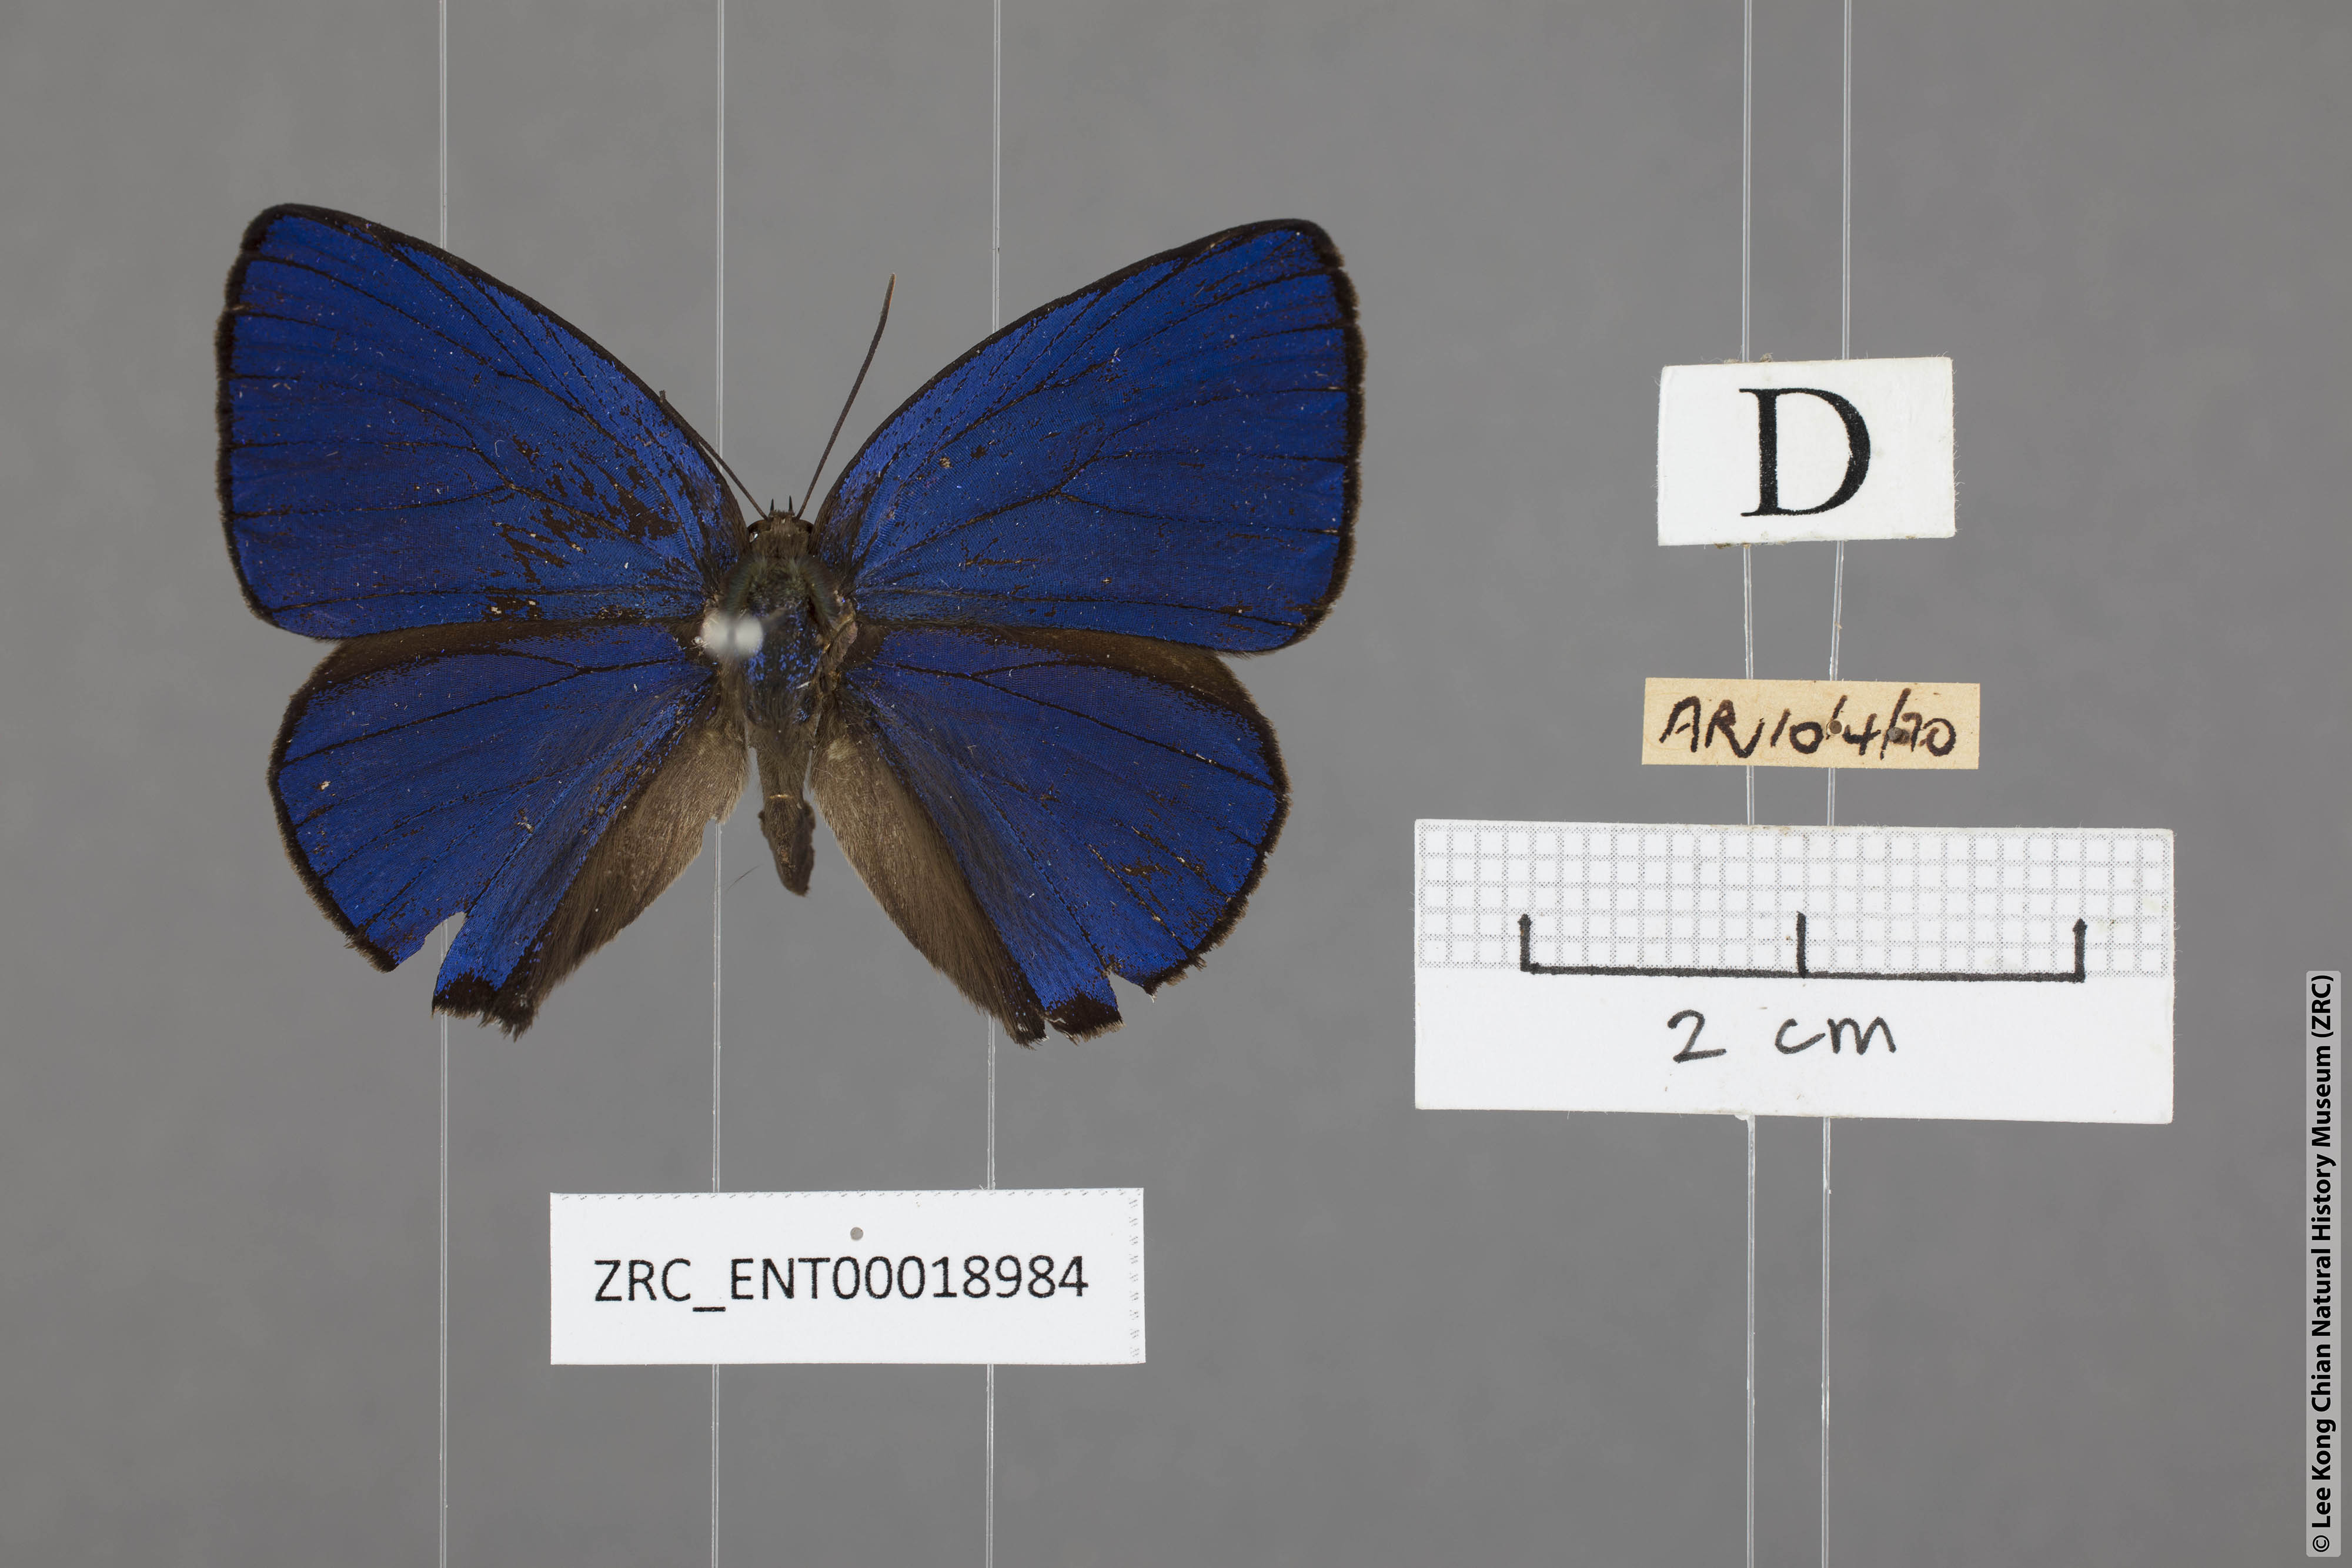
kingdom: Animalia
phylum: Arthropoda
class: Insecta
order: Lepidoptera
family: Lycaenidae
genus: Arhopala
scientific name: Arhopala ace
